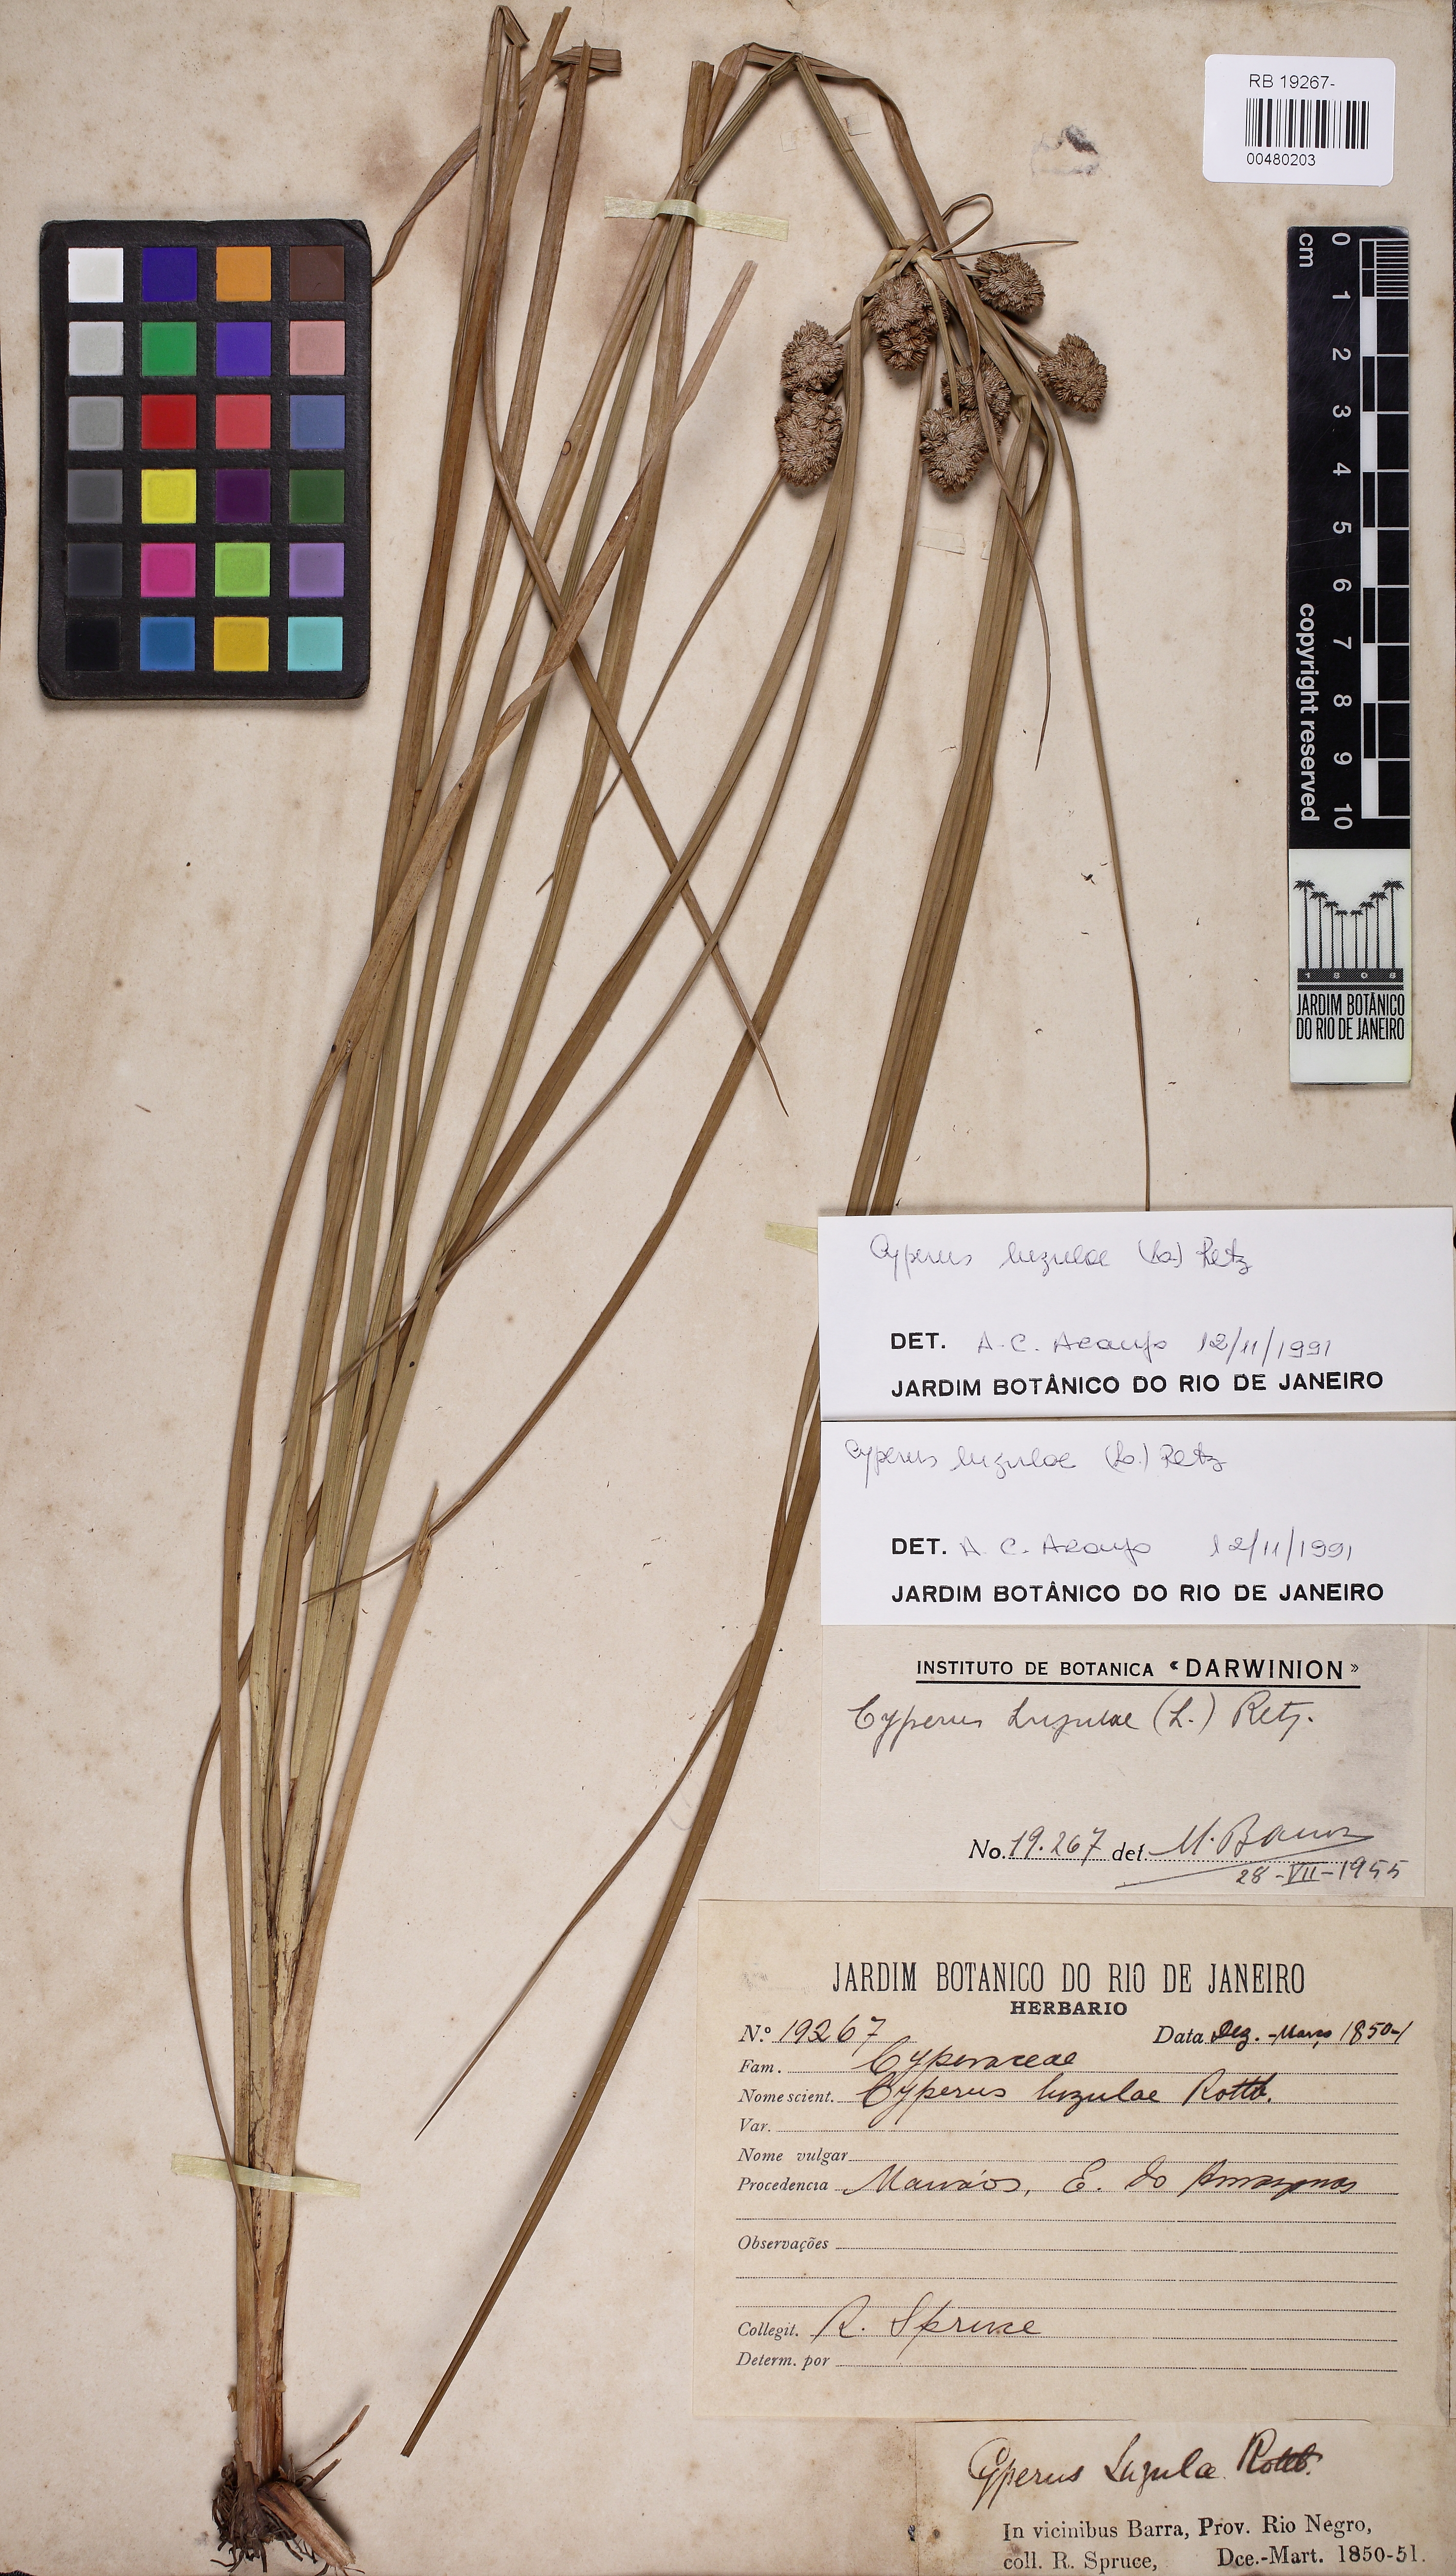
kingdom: Plantae
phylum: Tracheophyta
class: Liliopsida
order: Poales
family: Cyperaceae
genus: Cyperus
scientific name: Cyperus luzulae
